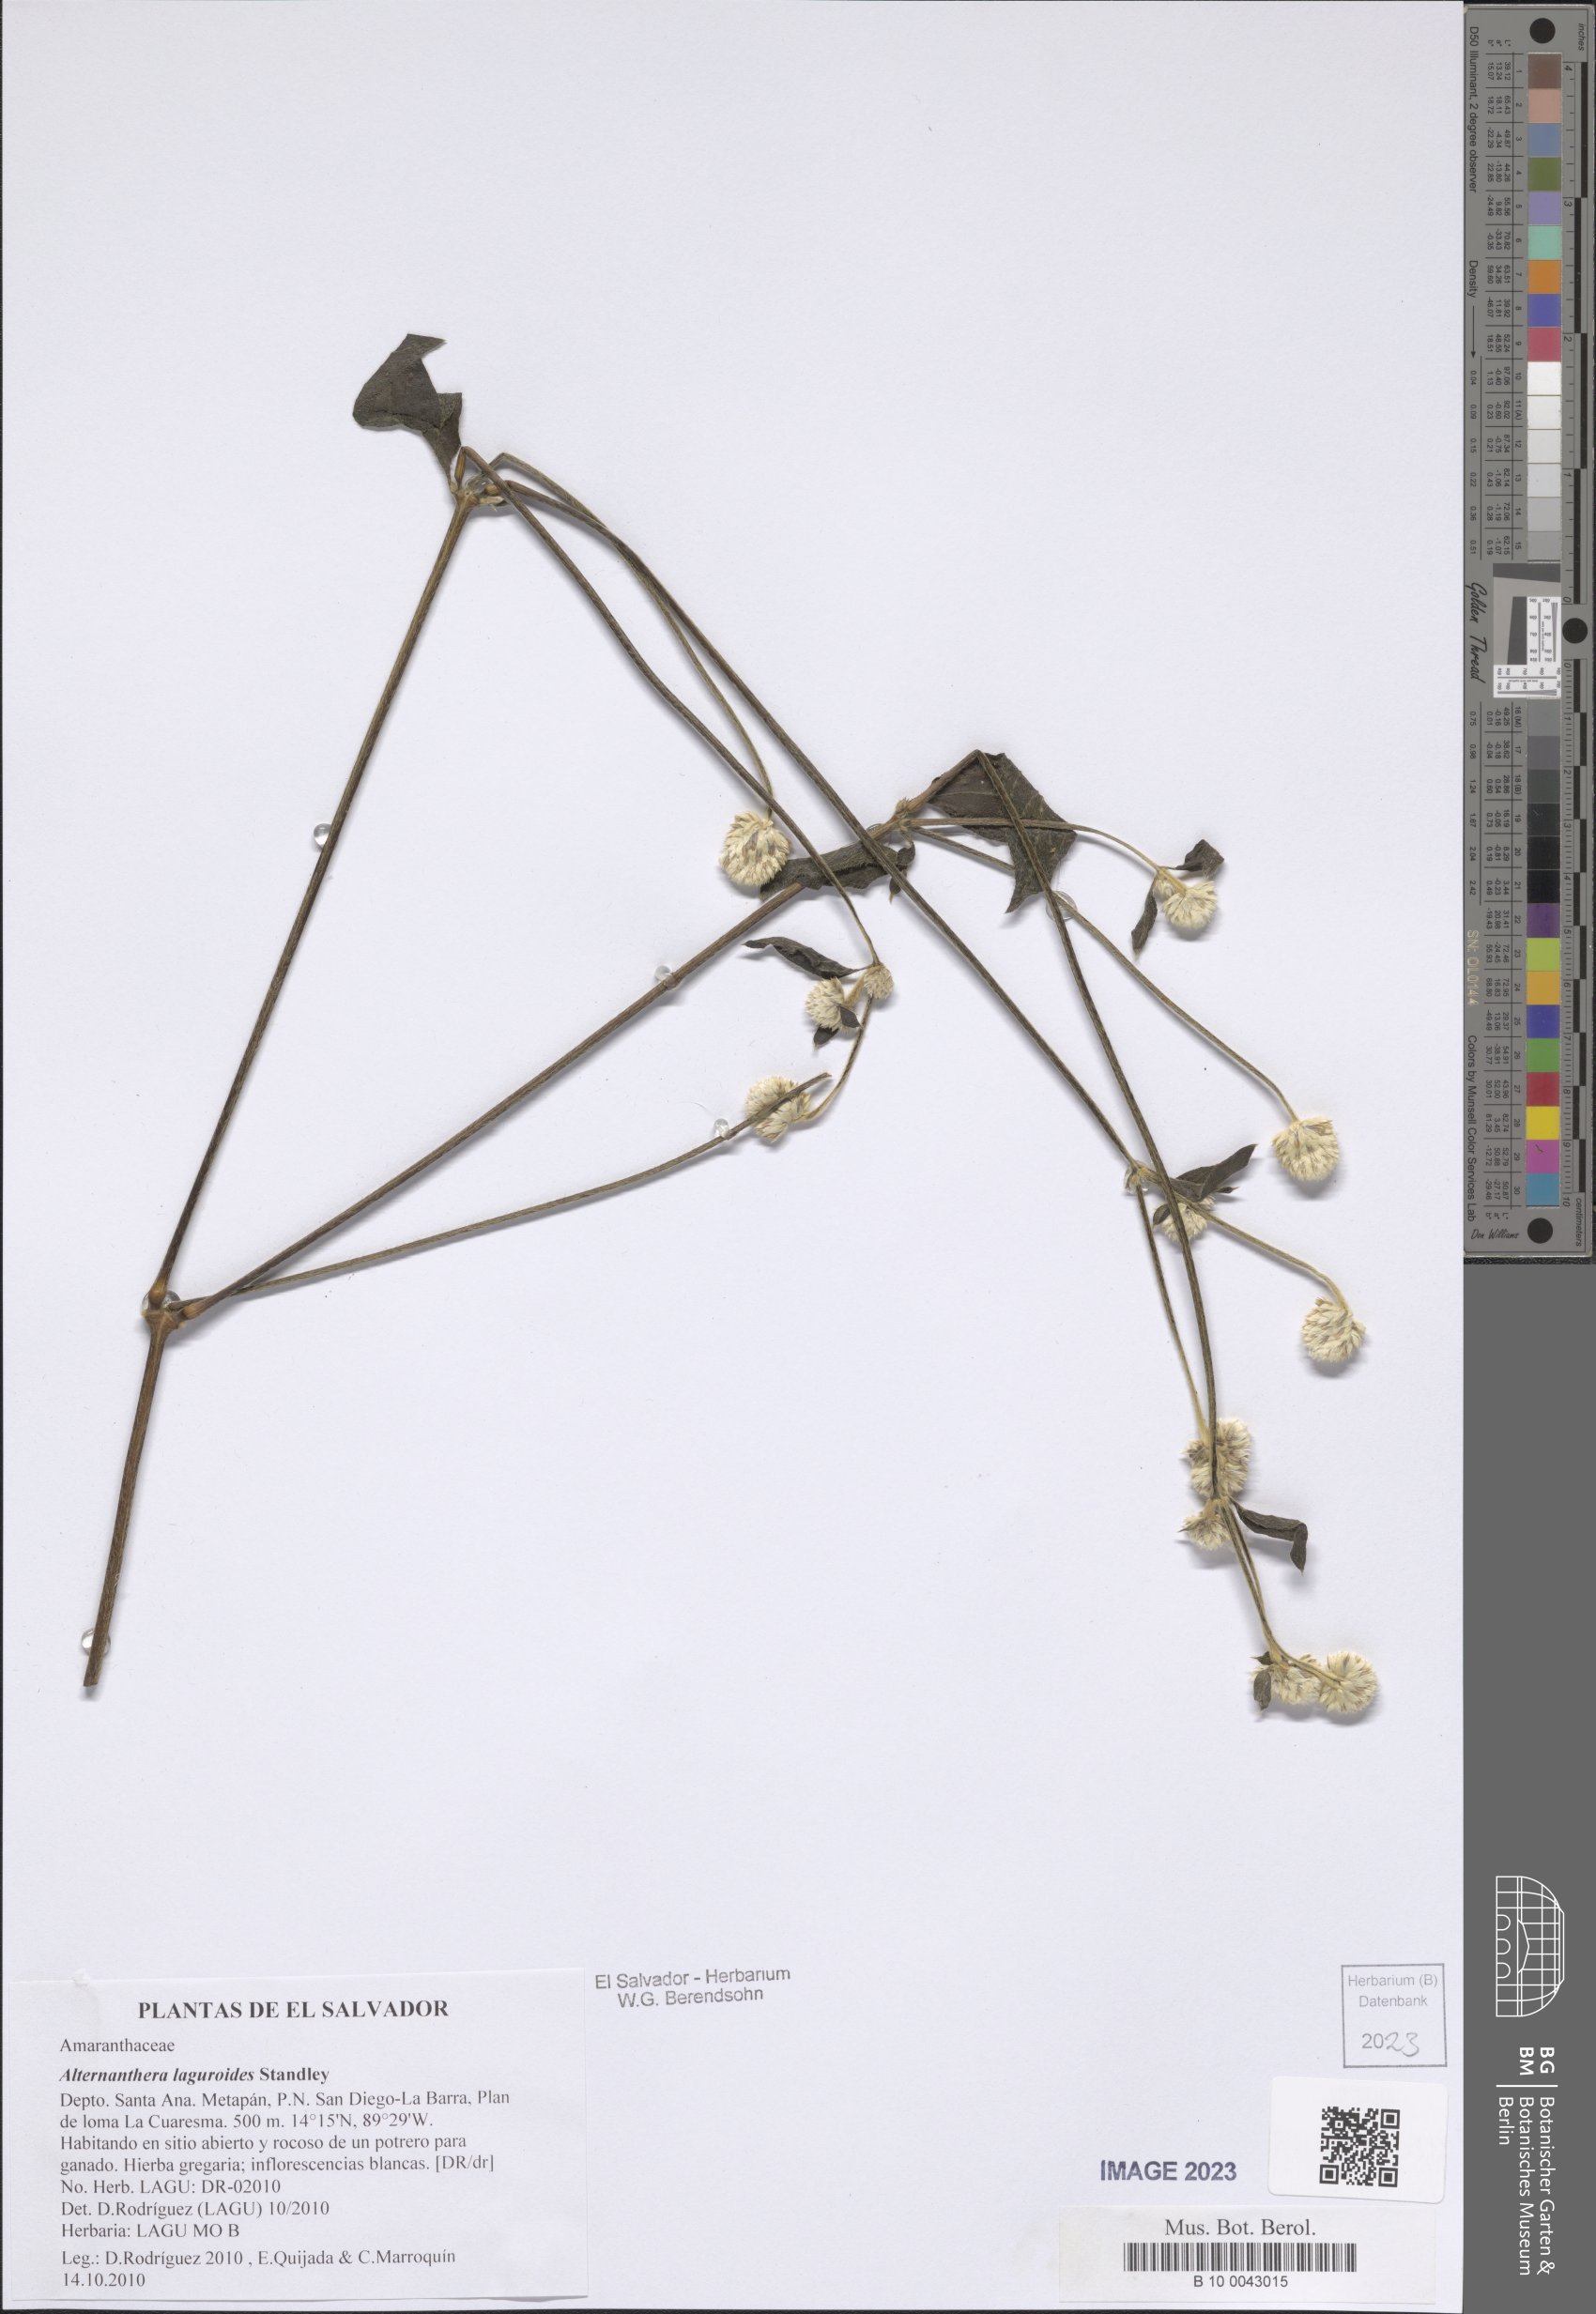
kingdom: Plantae
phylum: Tracheophyta
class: Magnoliopsida
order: Caryophyllales
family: Amaranthaceae
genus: Alternanthera
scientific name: Alternanthera laguroides
